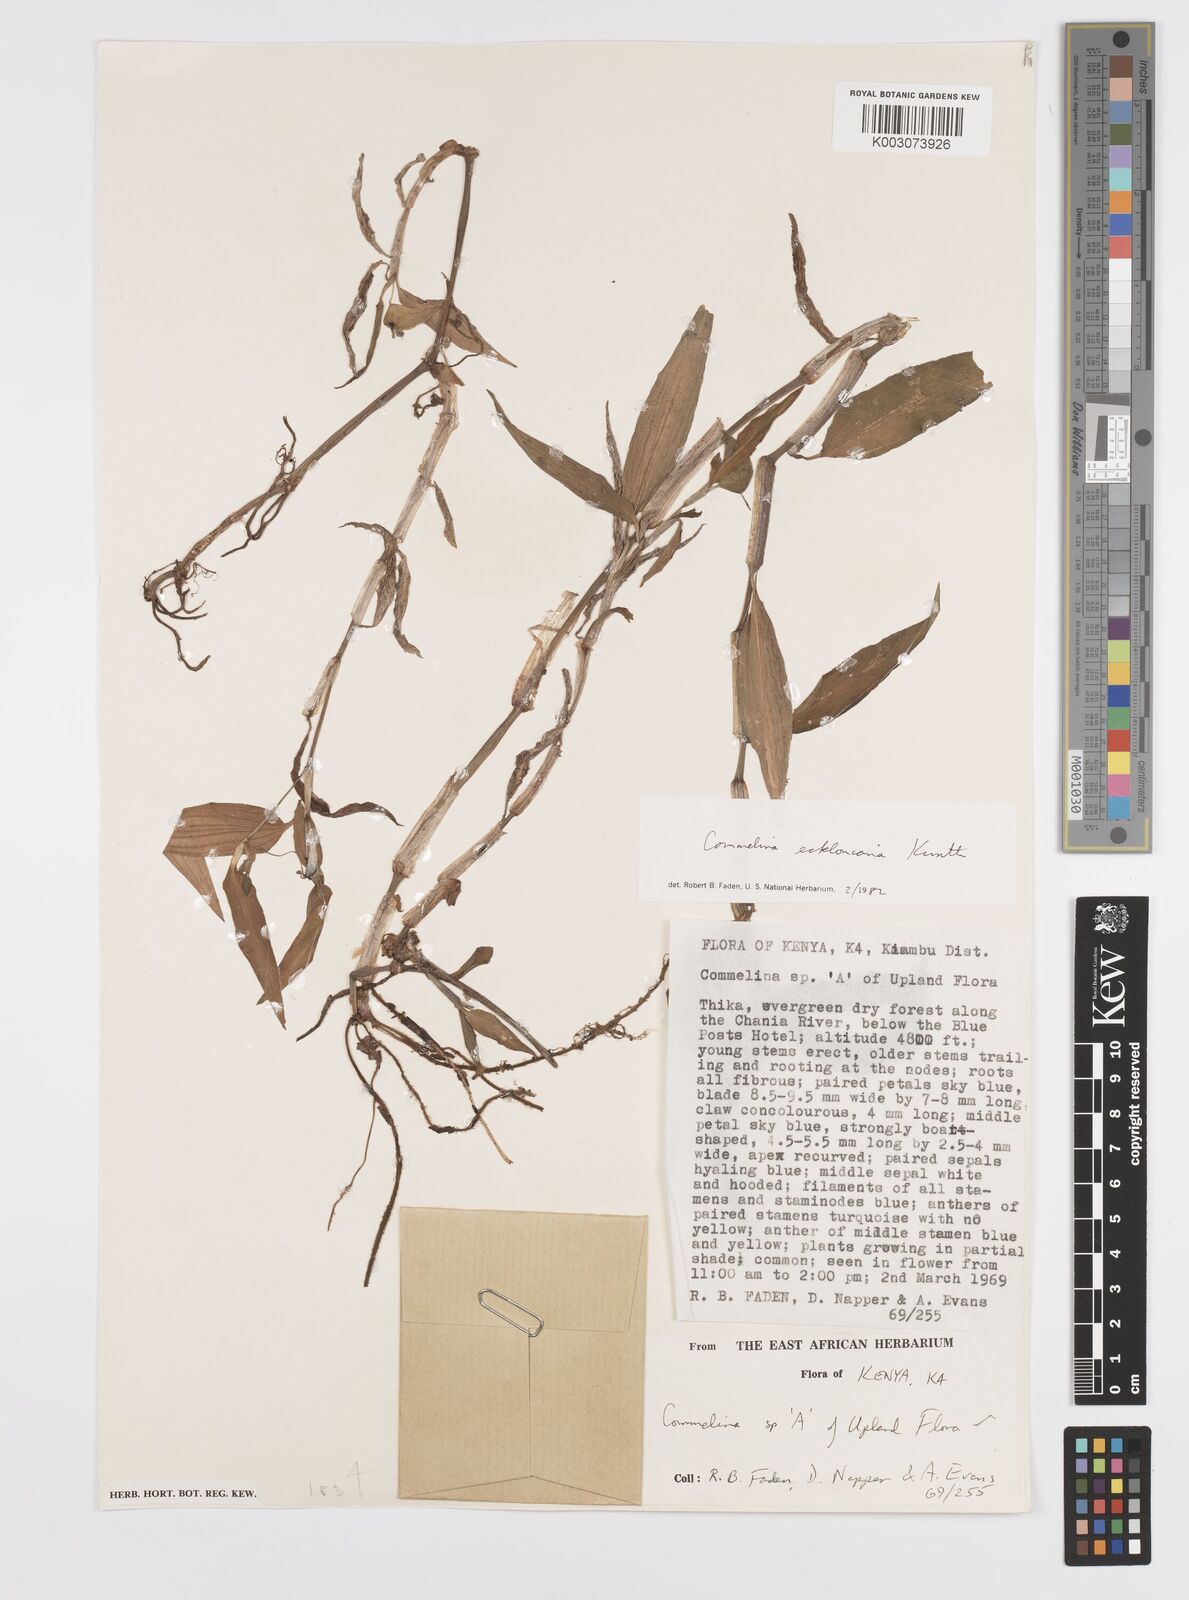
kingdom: Plantae
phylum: Tracheophyta
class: Liliopsida
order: Commelinales
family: Commelinaceae
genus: Commelina
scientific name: Commelina eckloniana
